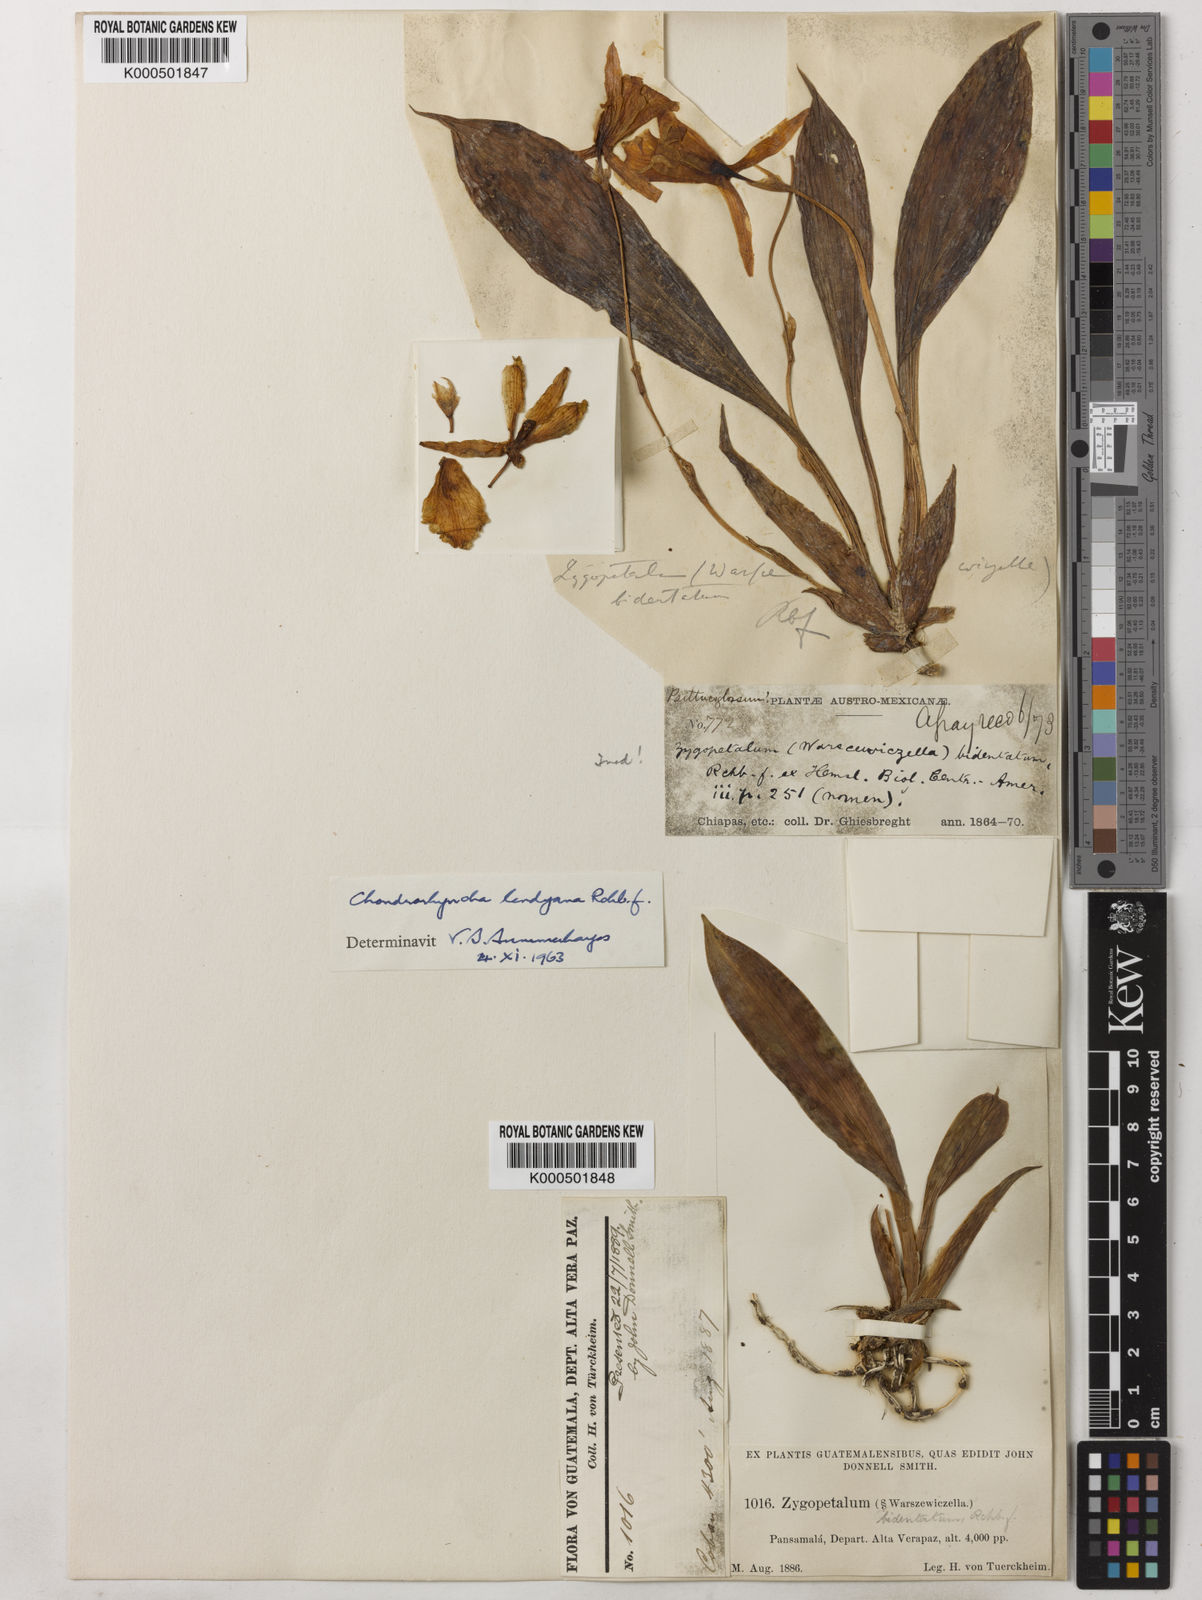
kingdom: Plantae
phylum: Tracheophyta
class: Liliopsida
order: Asparagales
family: Orchidaceae
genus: Stenotyla
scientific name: Stenotyla lendyana
